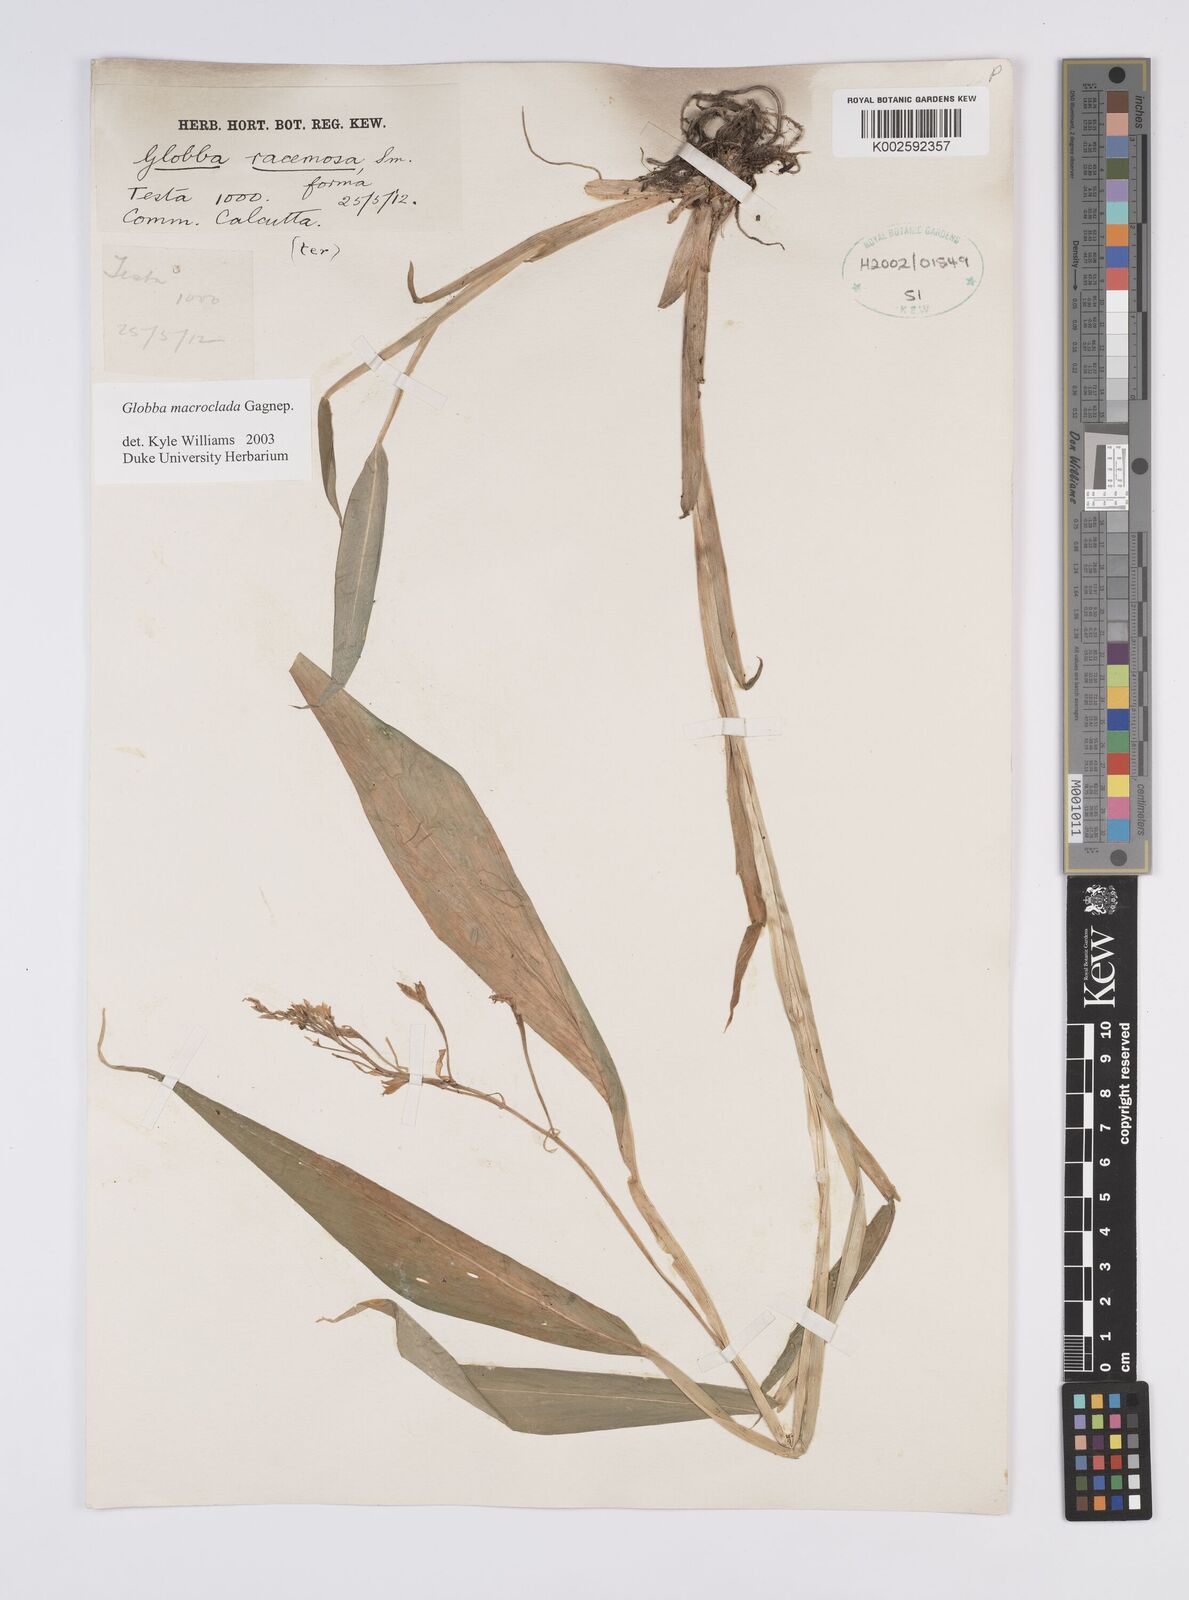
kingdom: Plantae
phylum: Tracheophyta
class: Liliopsida
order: Zingiberales
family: Zingiberaceae
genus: Globba
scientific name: Globba macroclada
